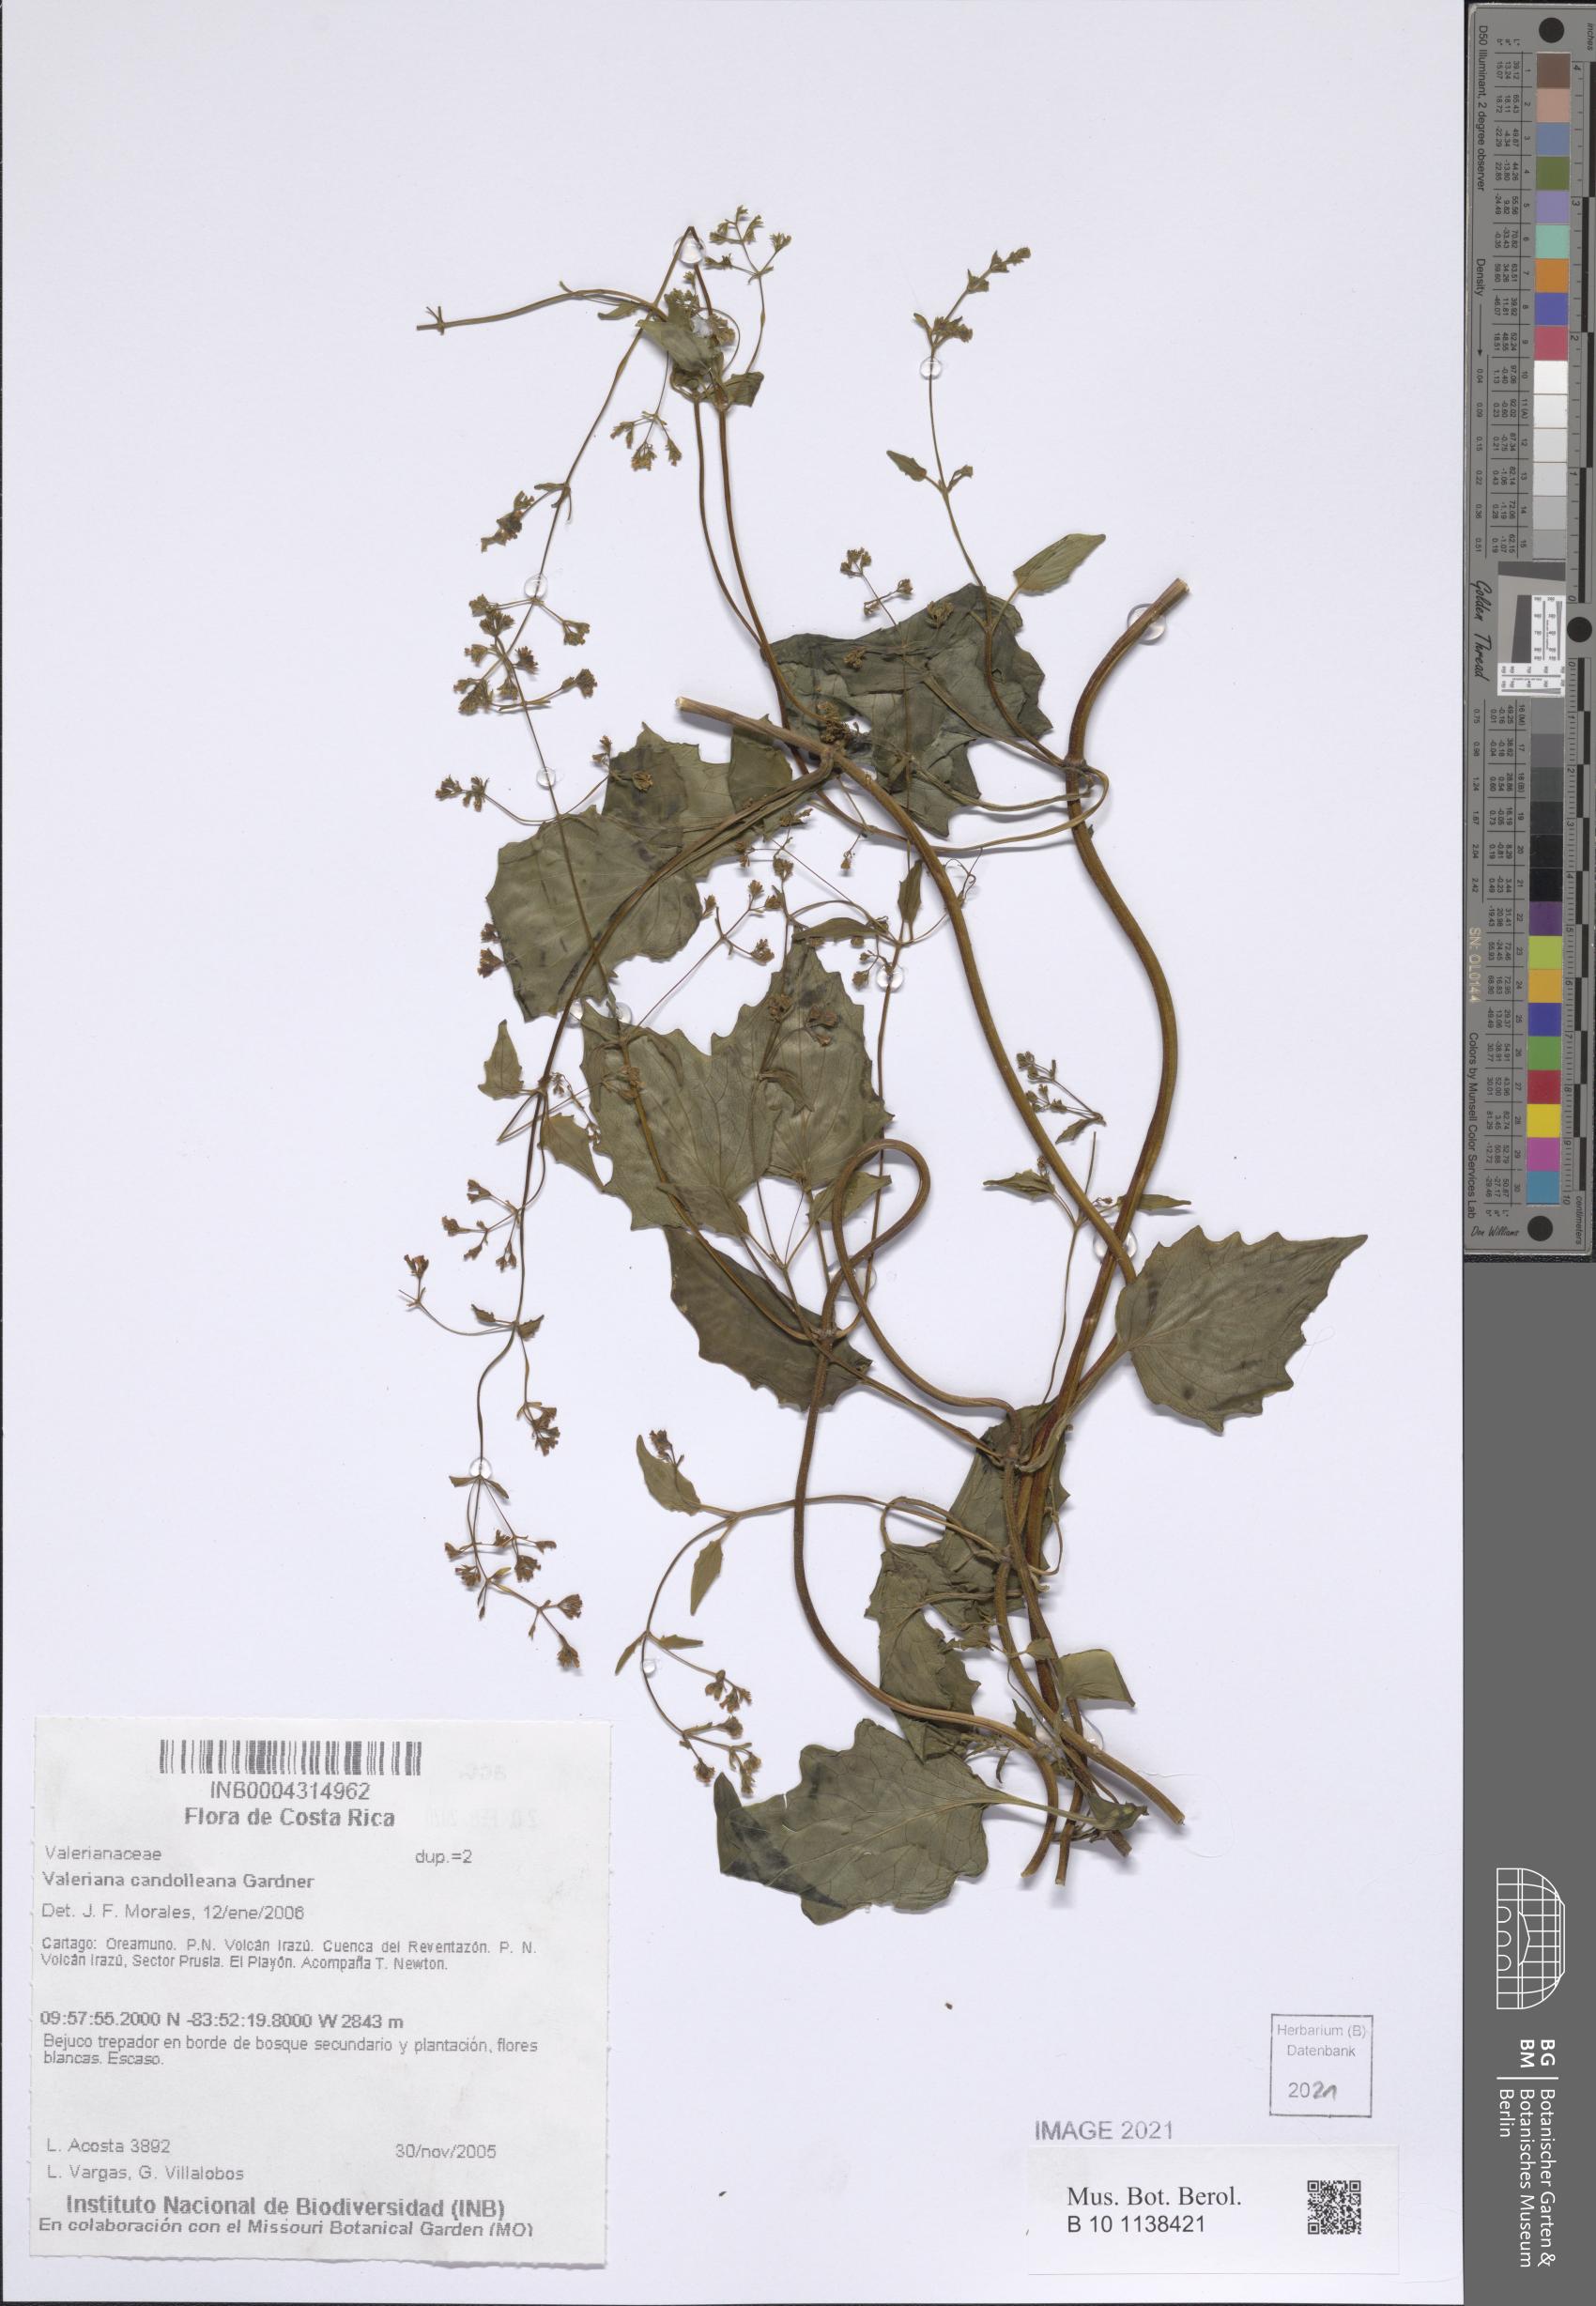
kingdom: Plantae
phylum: Tracheophyta
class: Magnoliopsida
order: Dipsacales
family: Caprifoliaceae
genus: Valeriana
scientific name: Valeriana candolleana
